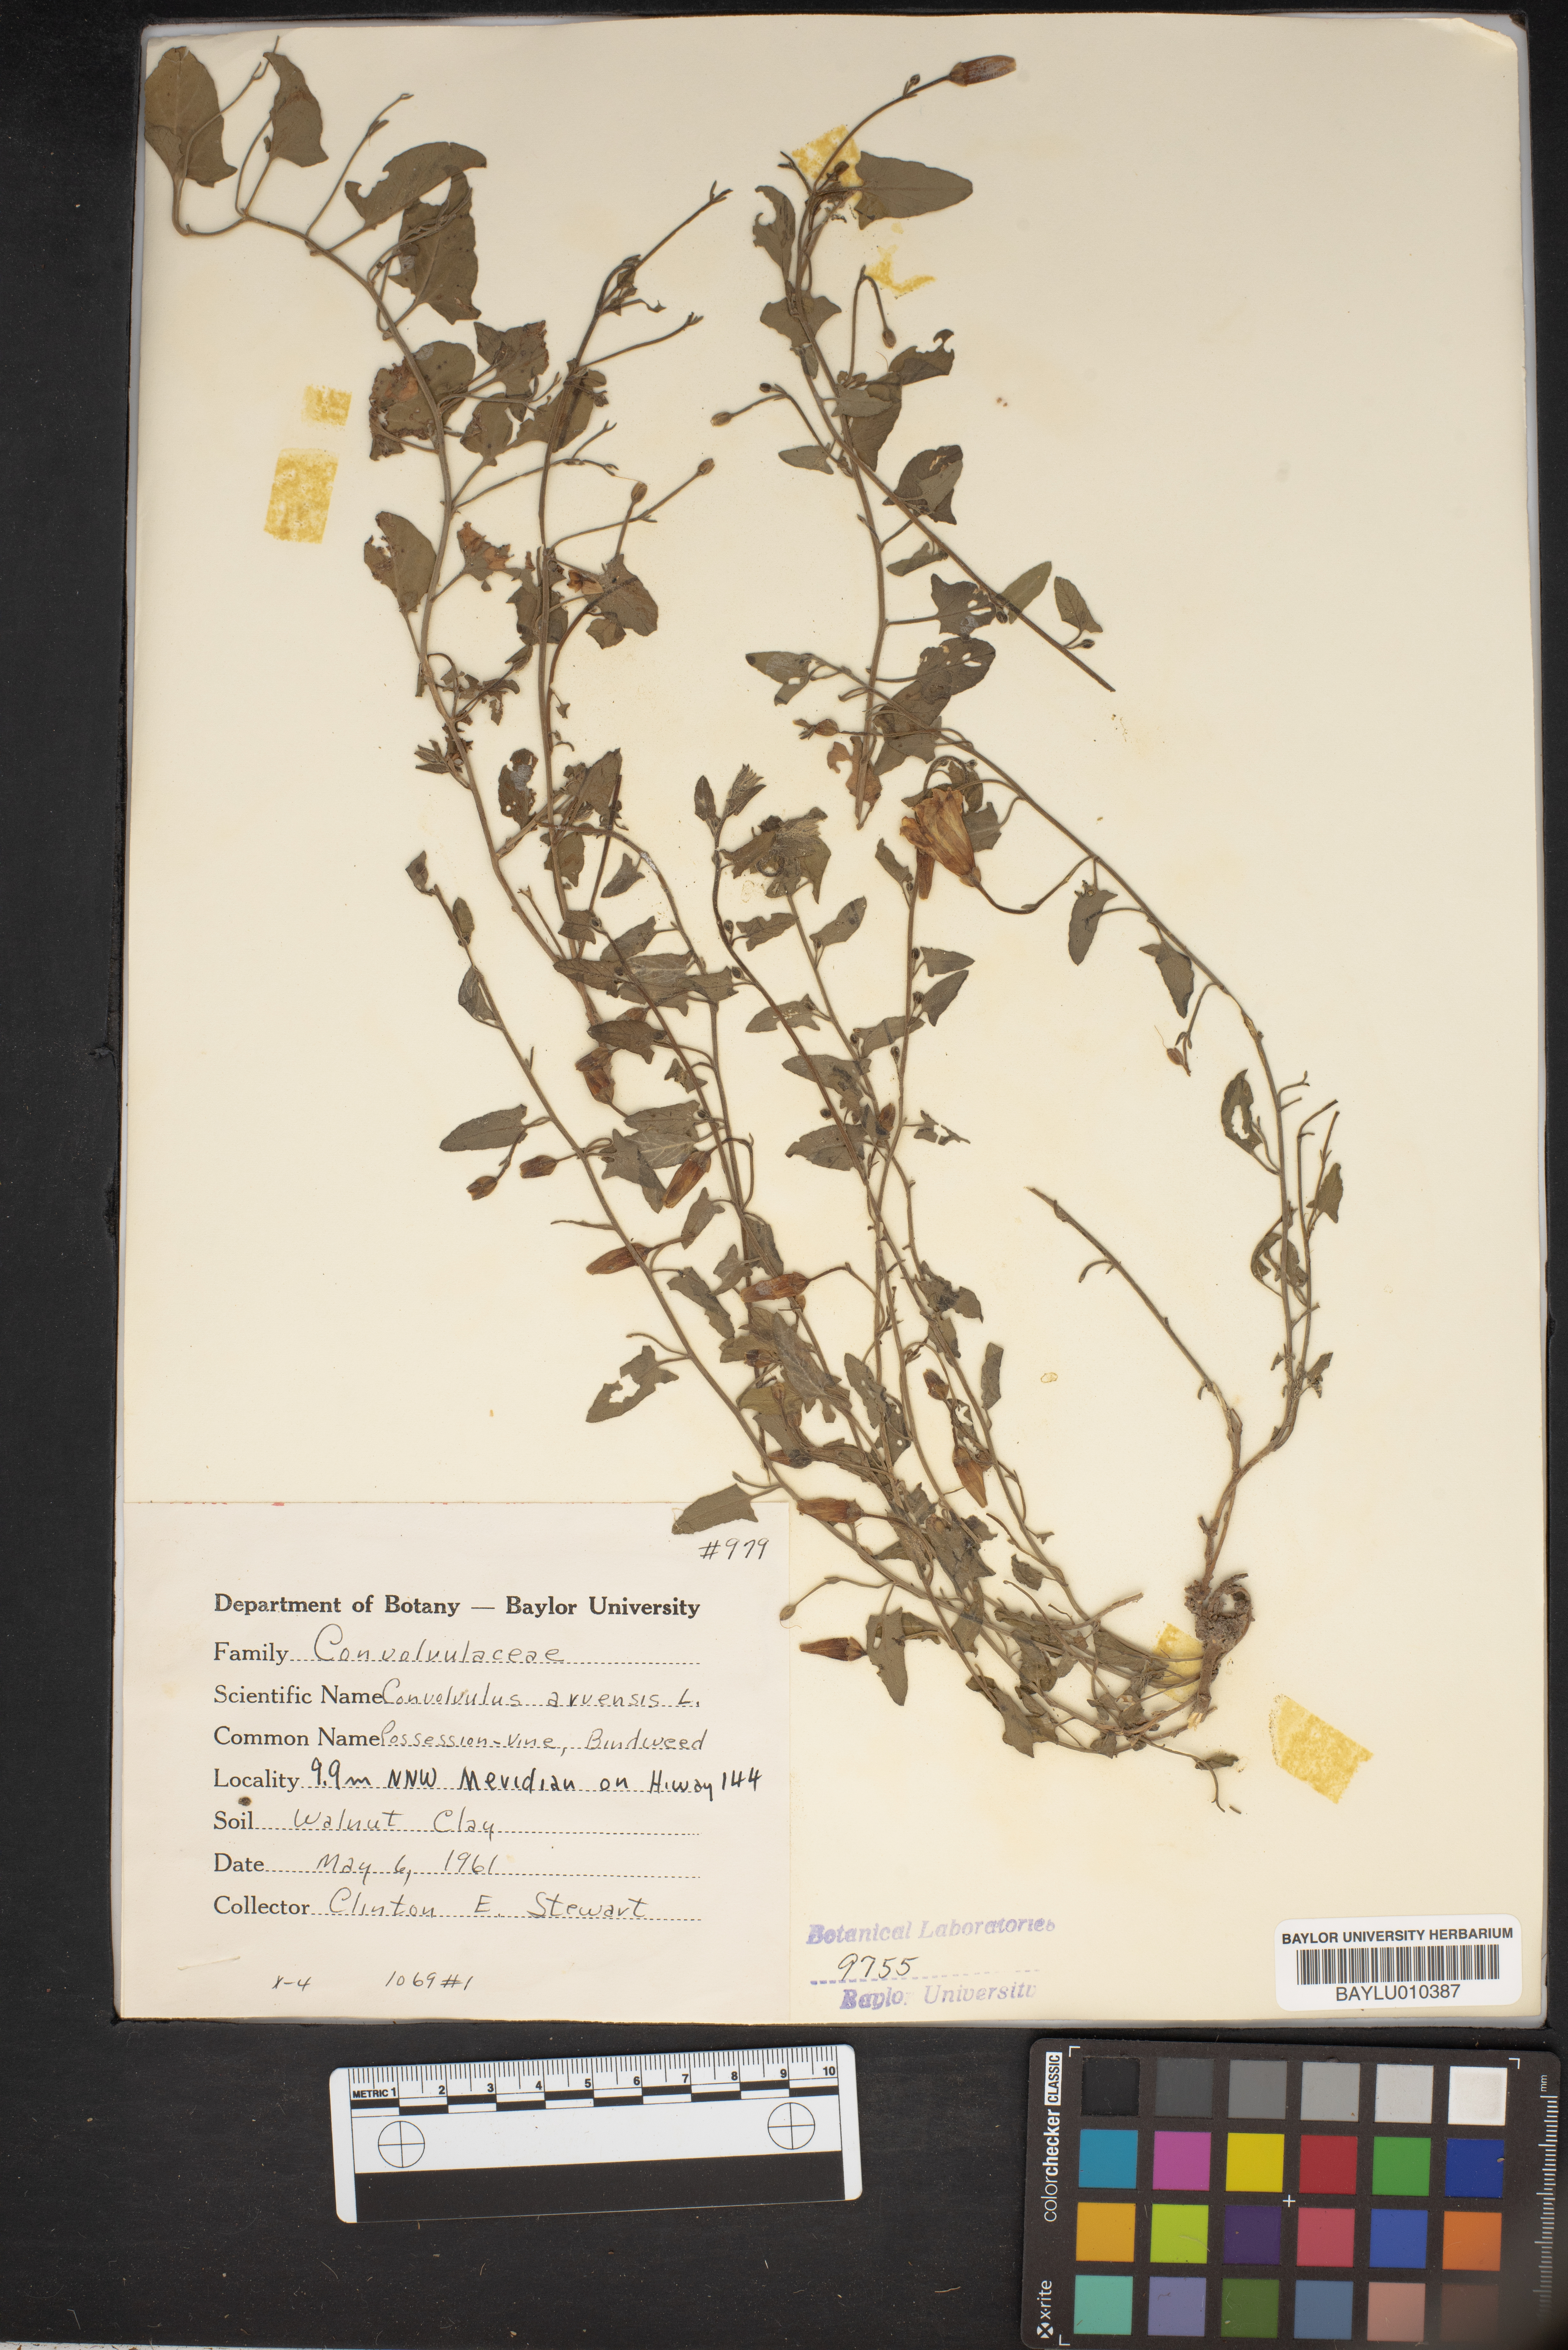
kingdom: Plantae
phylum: Tracheophyta
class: Magnoliopsida
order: Solanales
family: Convolvulaceae
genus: Convolvulus
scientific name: Convolvulus arvensis
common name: Field bindweed
